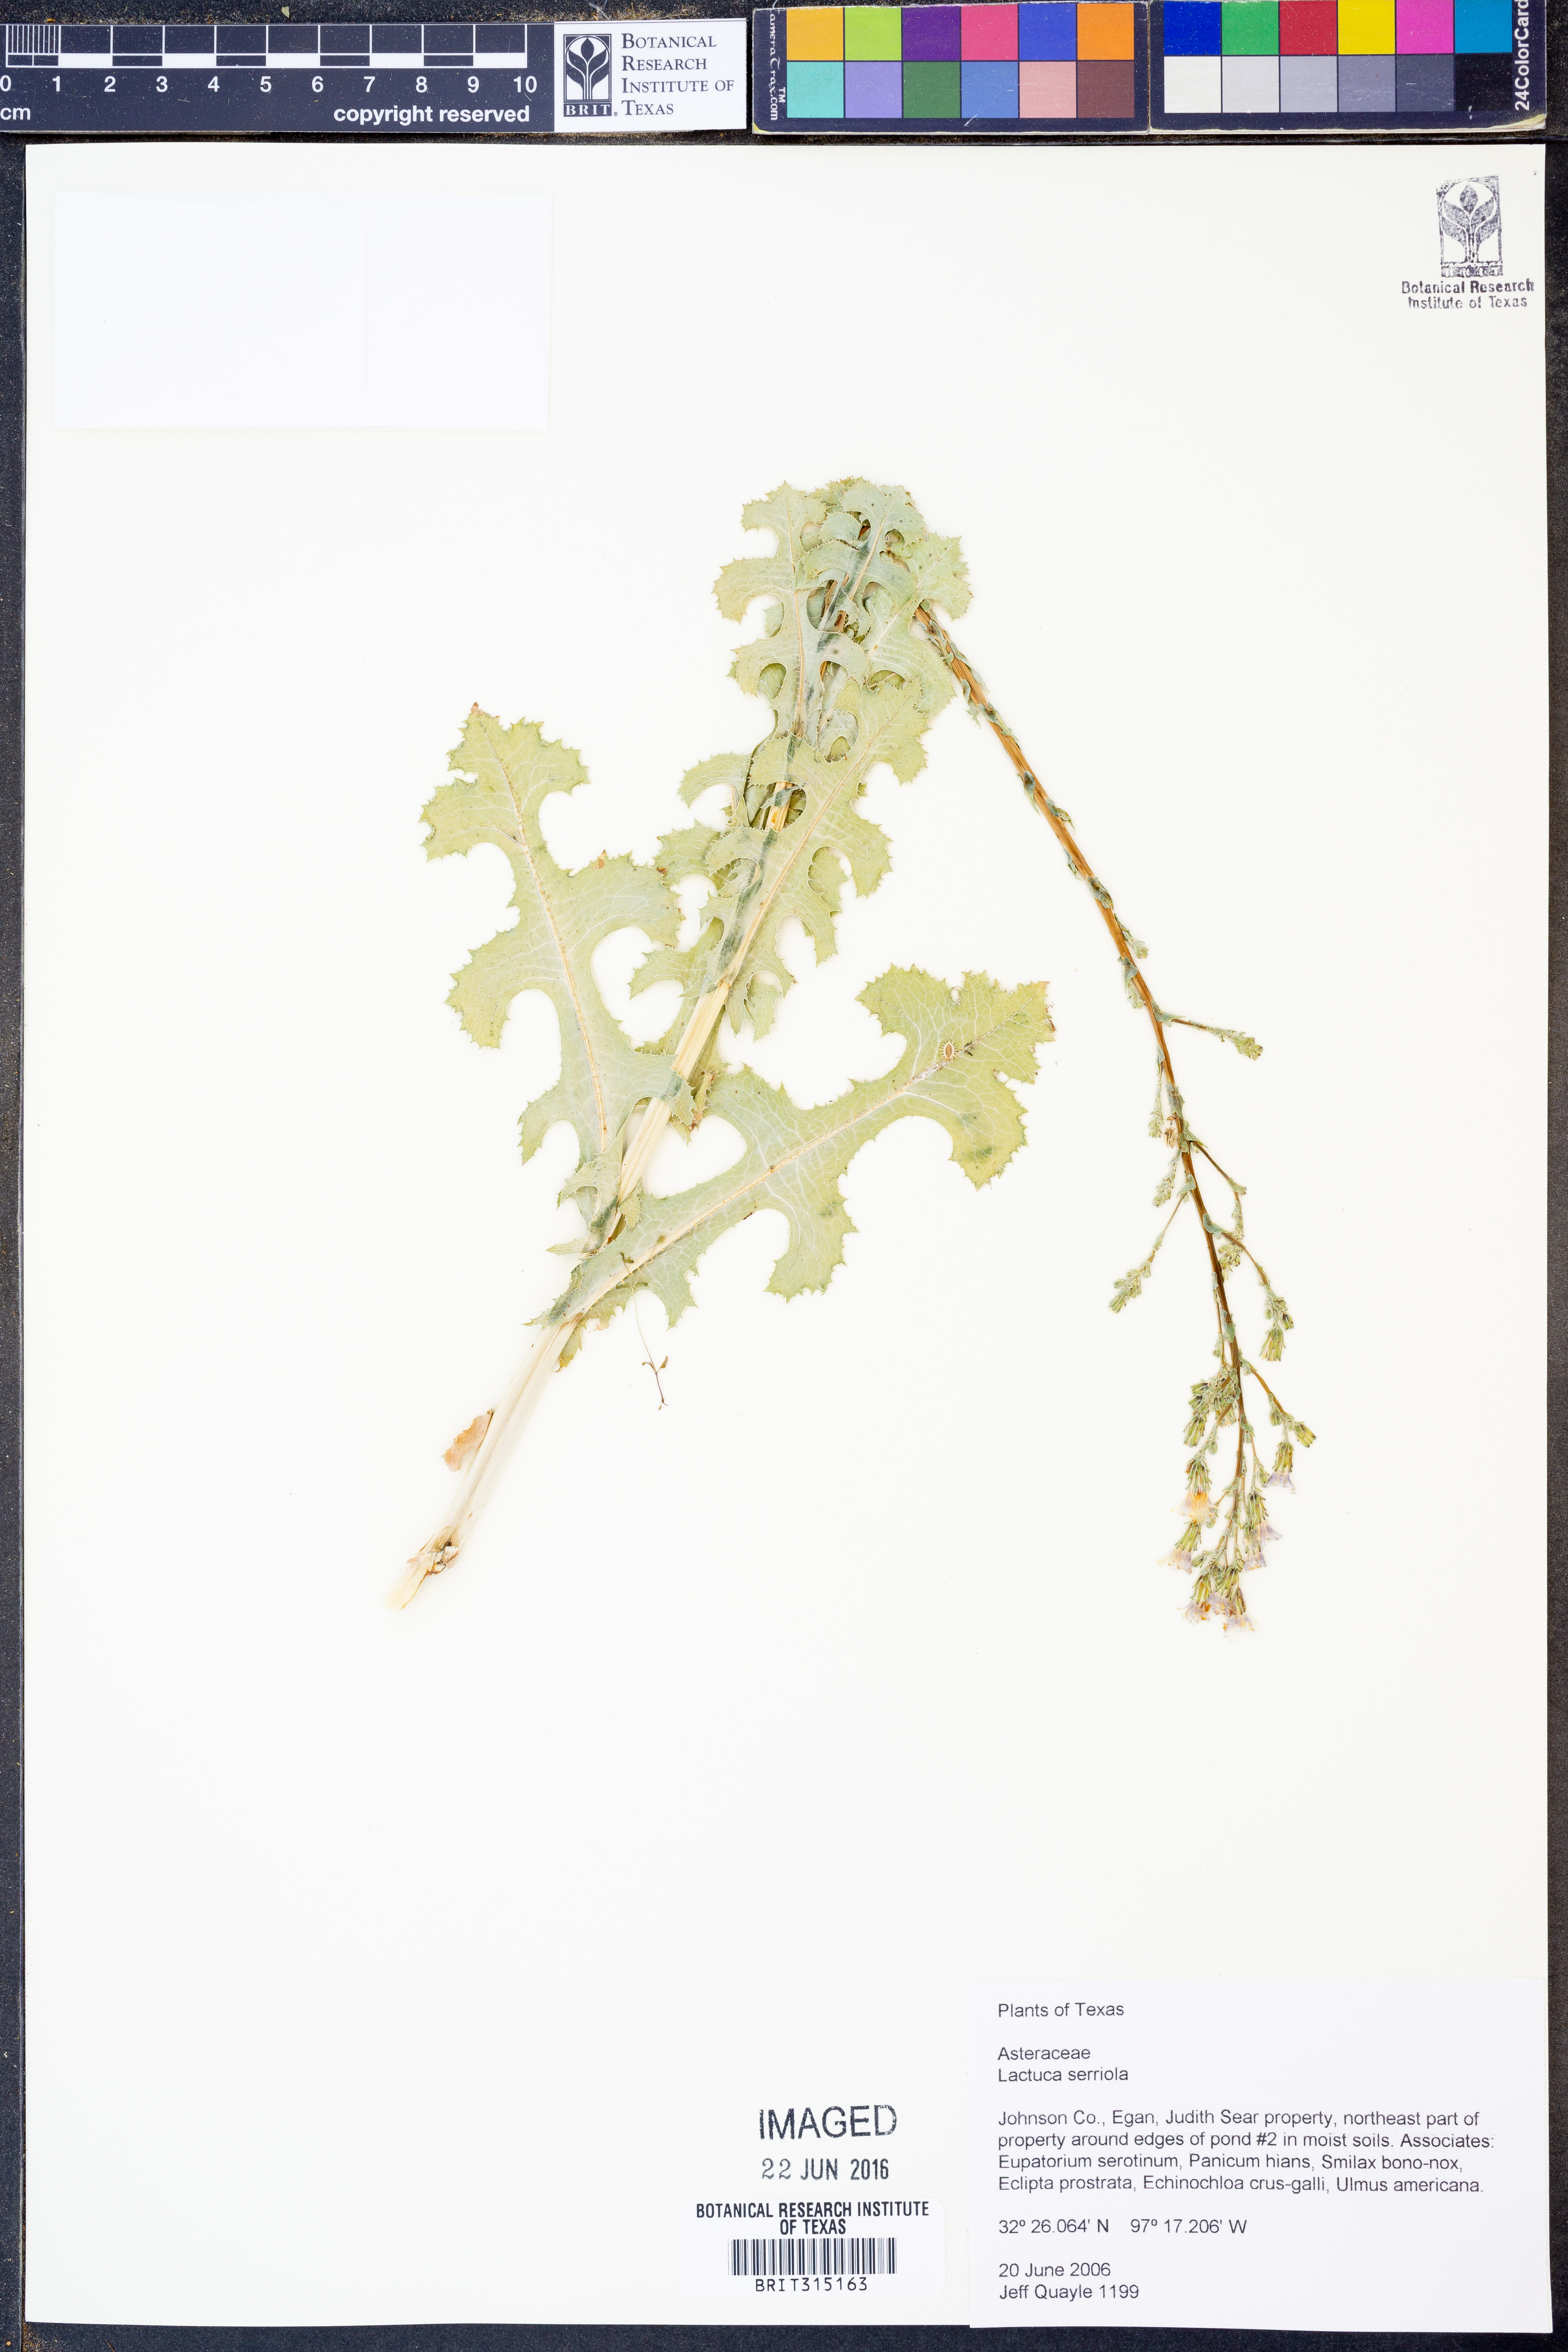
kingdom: Plantae
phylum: Tracheophyta
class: Magnoliopsida
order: Asterales
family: Asteraceae
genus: Lactuca
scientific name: Lactuca serriola
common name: Prickly lettuce
